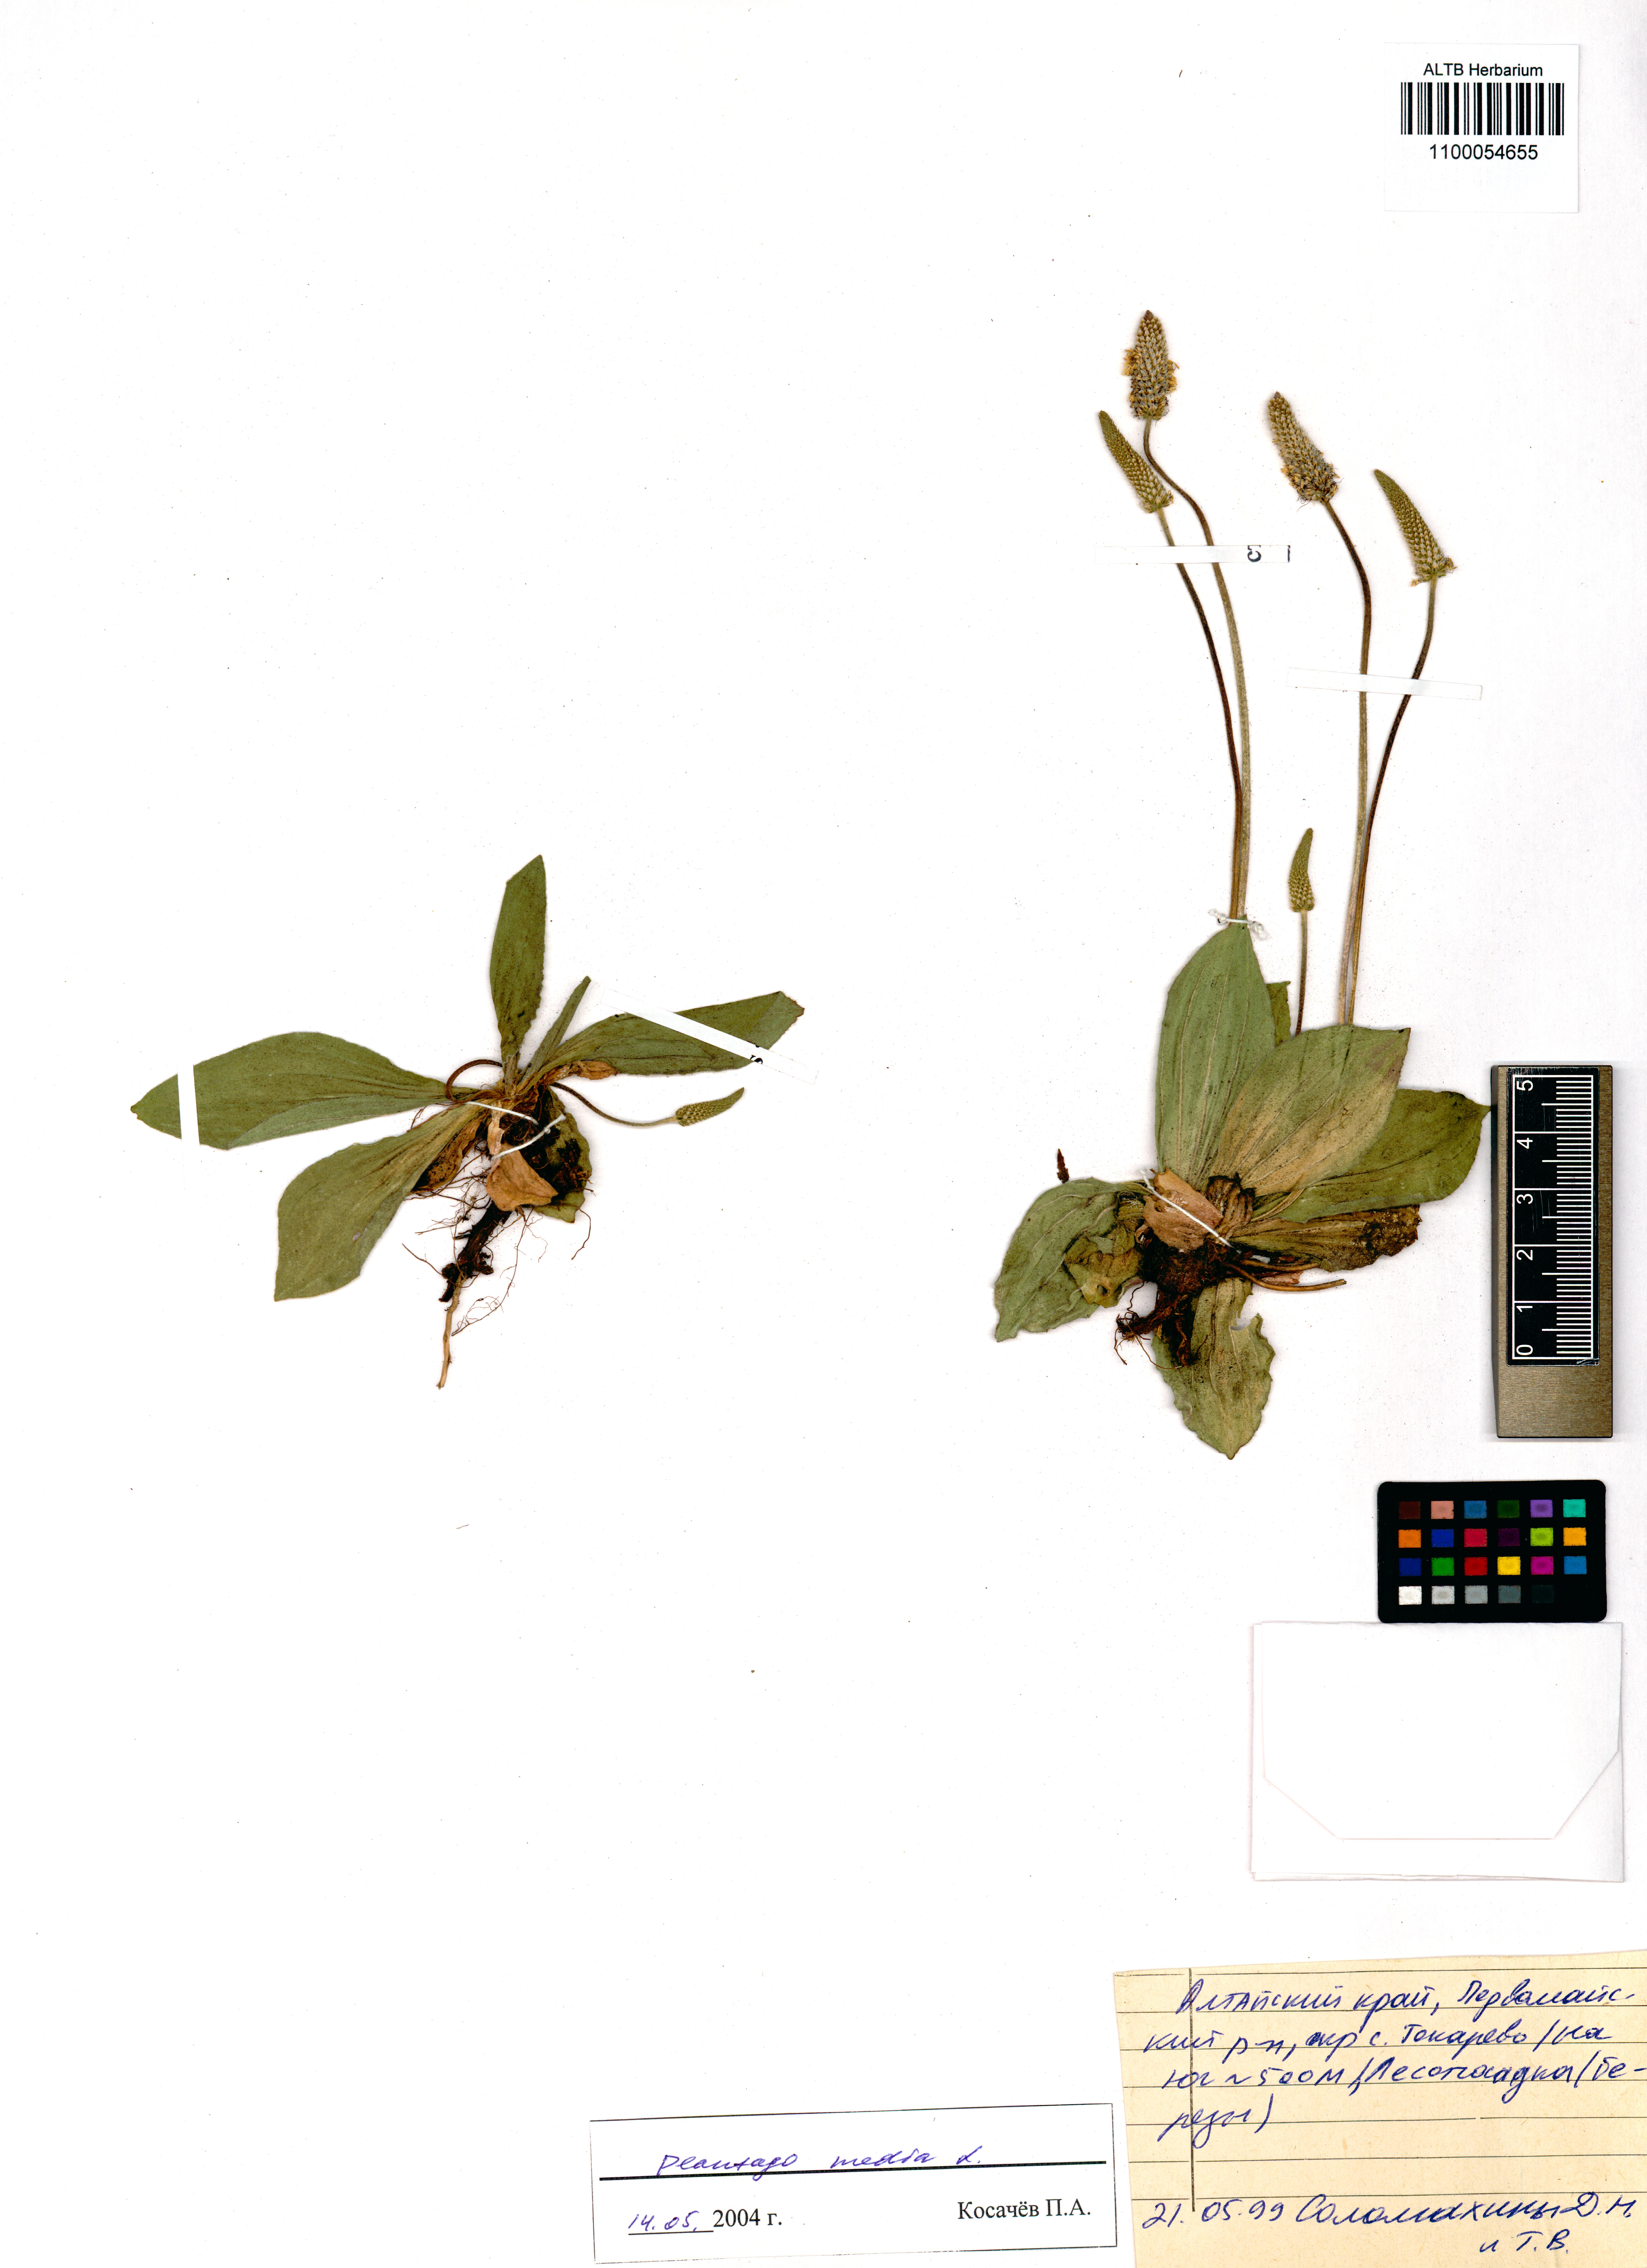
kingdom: Plantae
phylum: Tracheophyta
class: Magnoliopsida
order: Lamiales
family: Plantaginaceae
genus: Plantago
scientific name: Plantago media
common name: Hoary plantain
